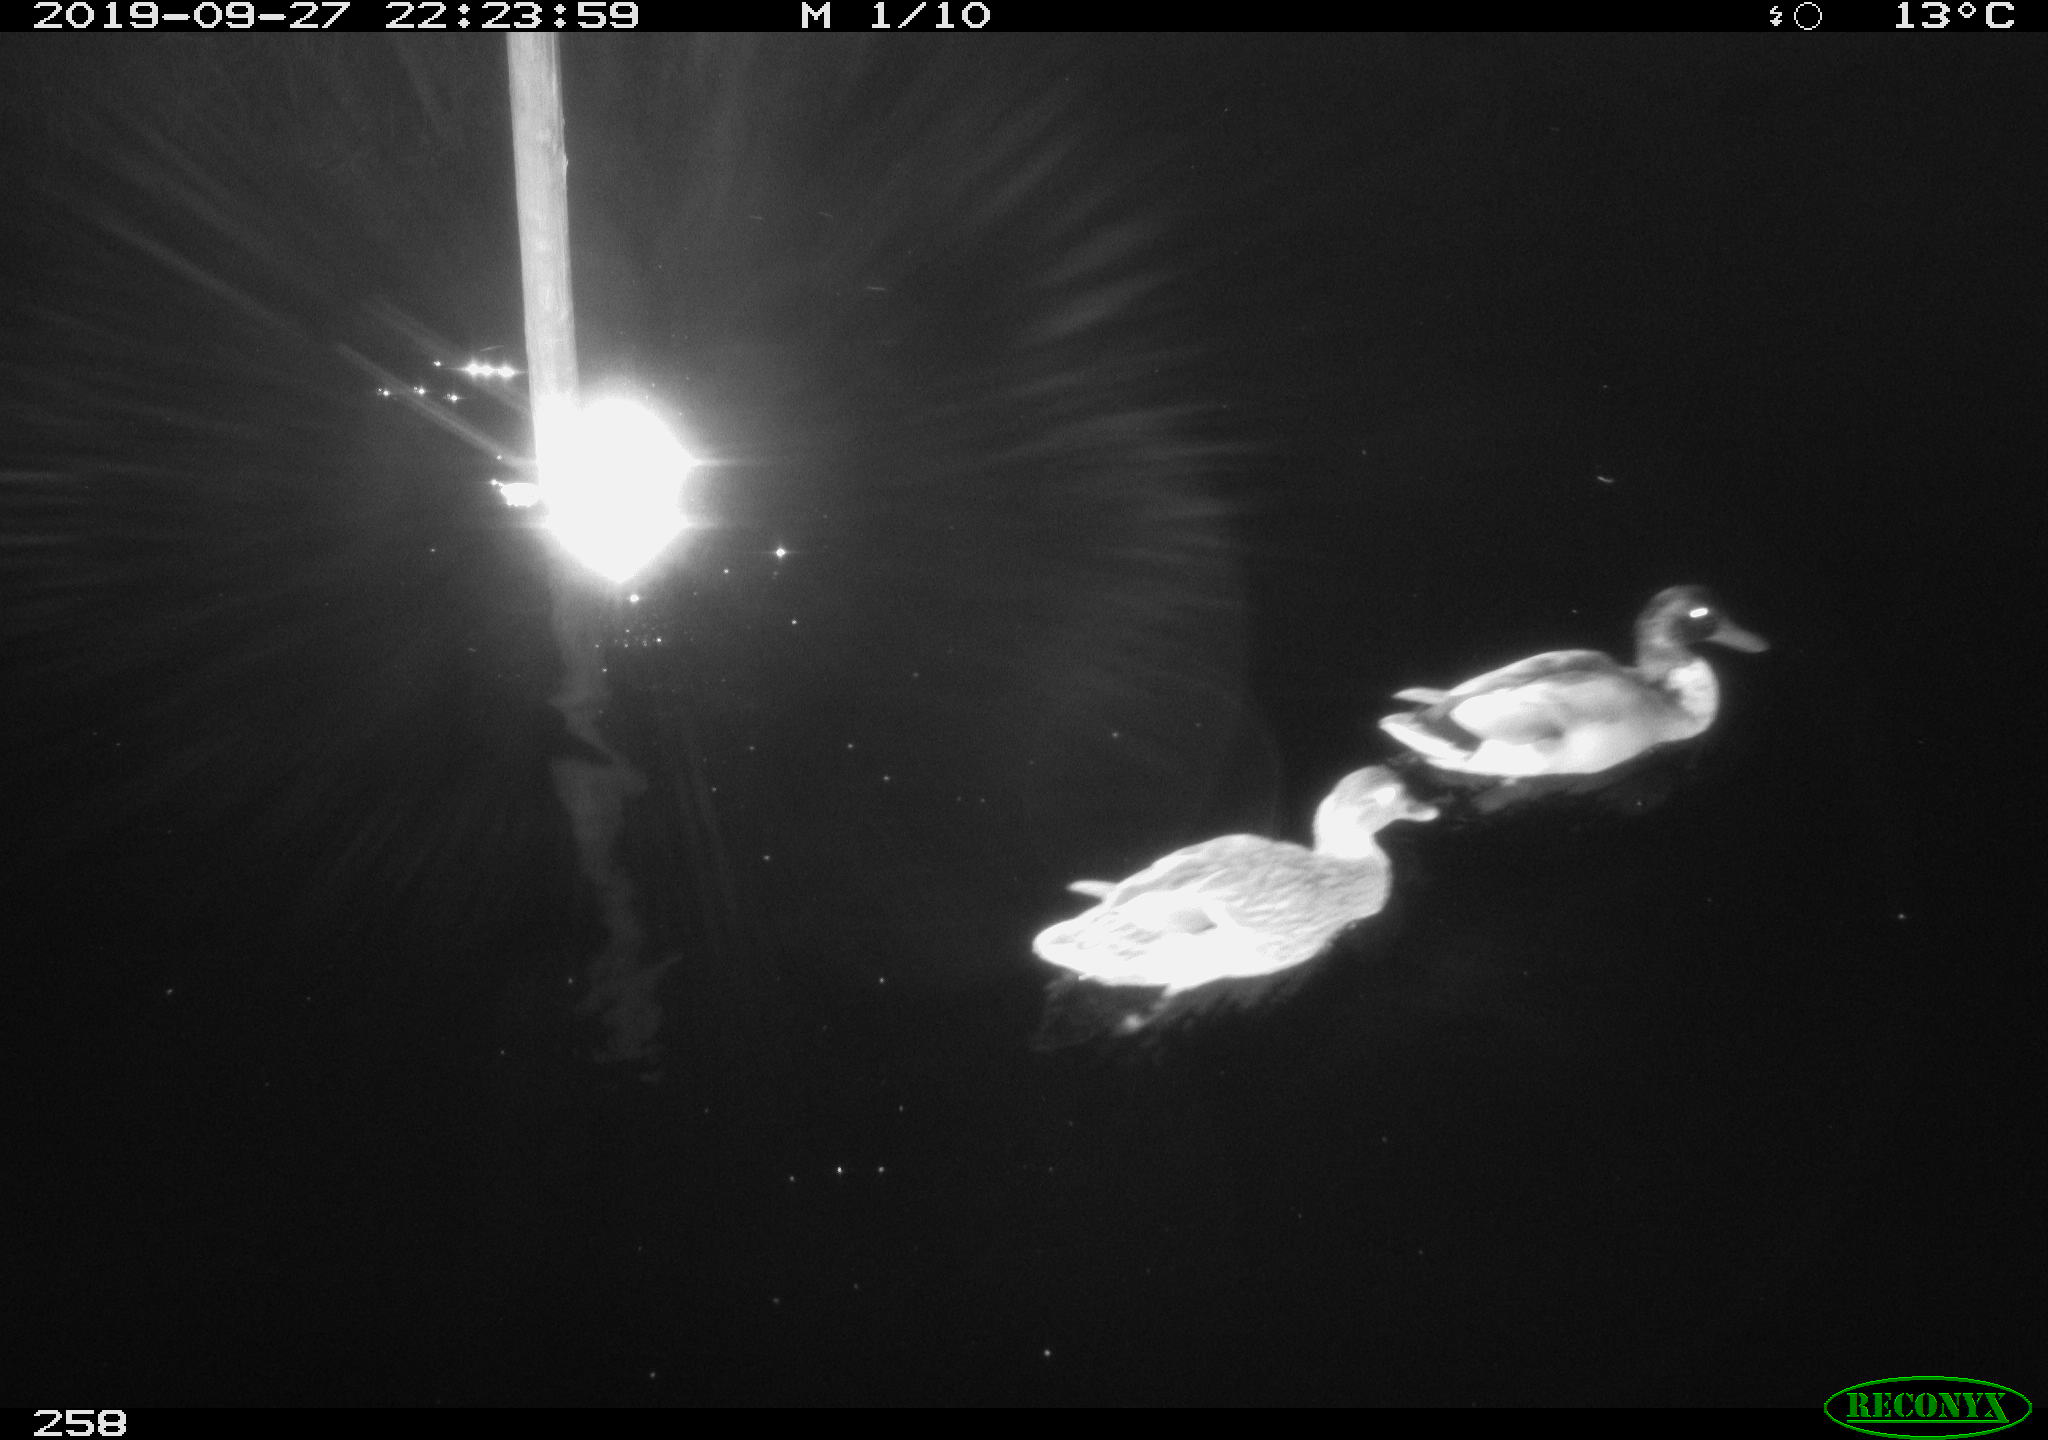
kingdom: Animalia
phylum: Chordata
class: Aves
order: Anseriformes
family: Anatidae
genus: Anas
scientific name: Anas platyrhynchos
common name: Mallard
